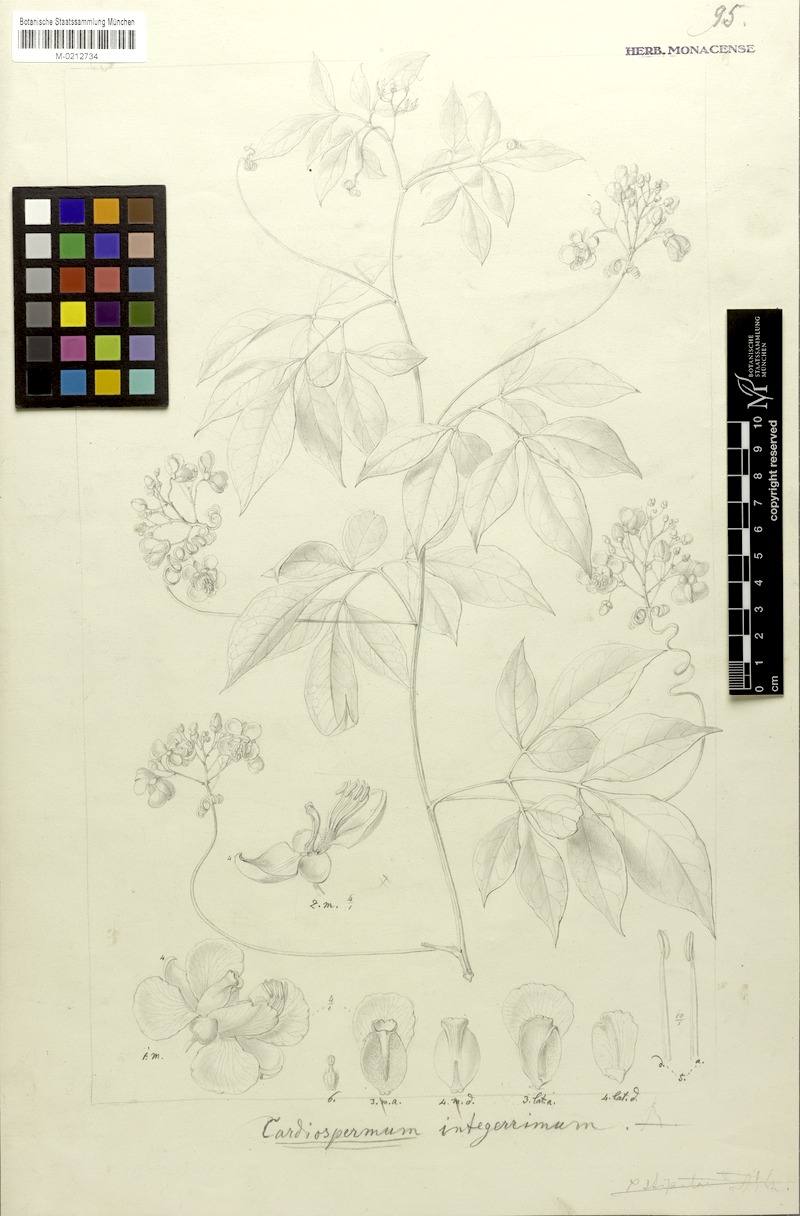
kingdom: Plantae
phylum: Tracheophyta
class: Magnoliopsida
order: Sapindales
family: Sapindaceae
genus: Cardiospermum
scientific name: Cardiospermum integerrimum
